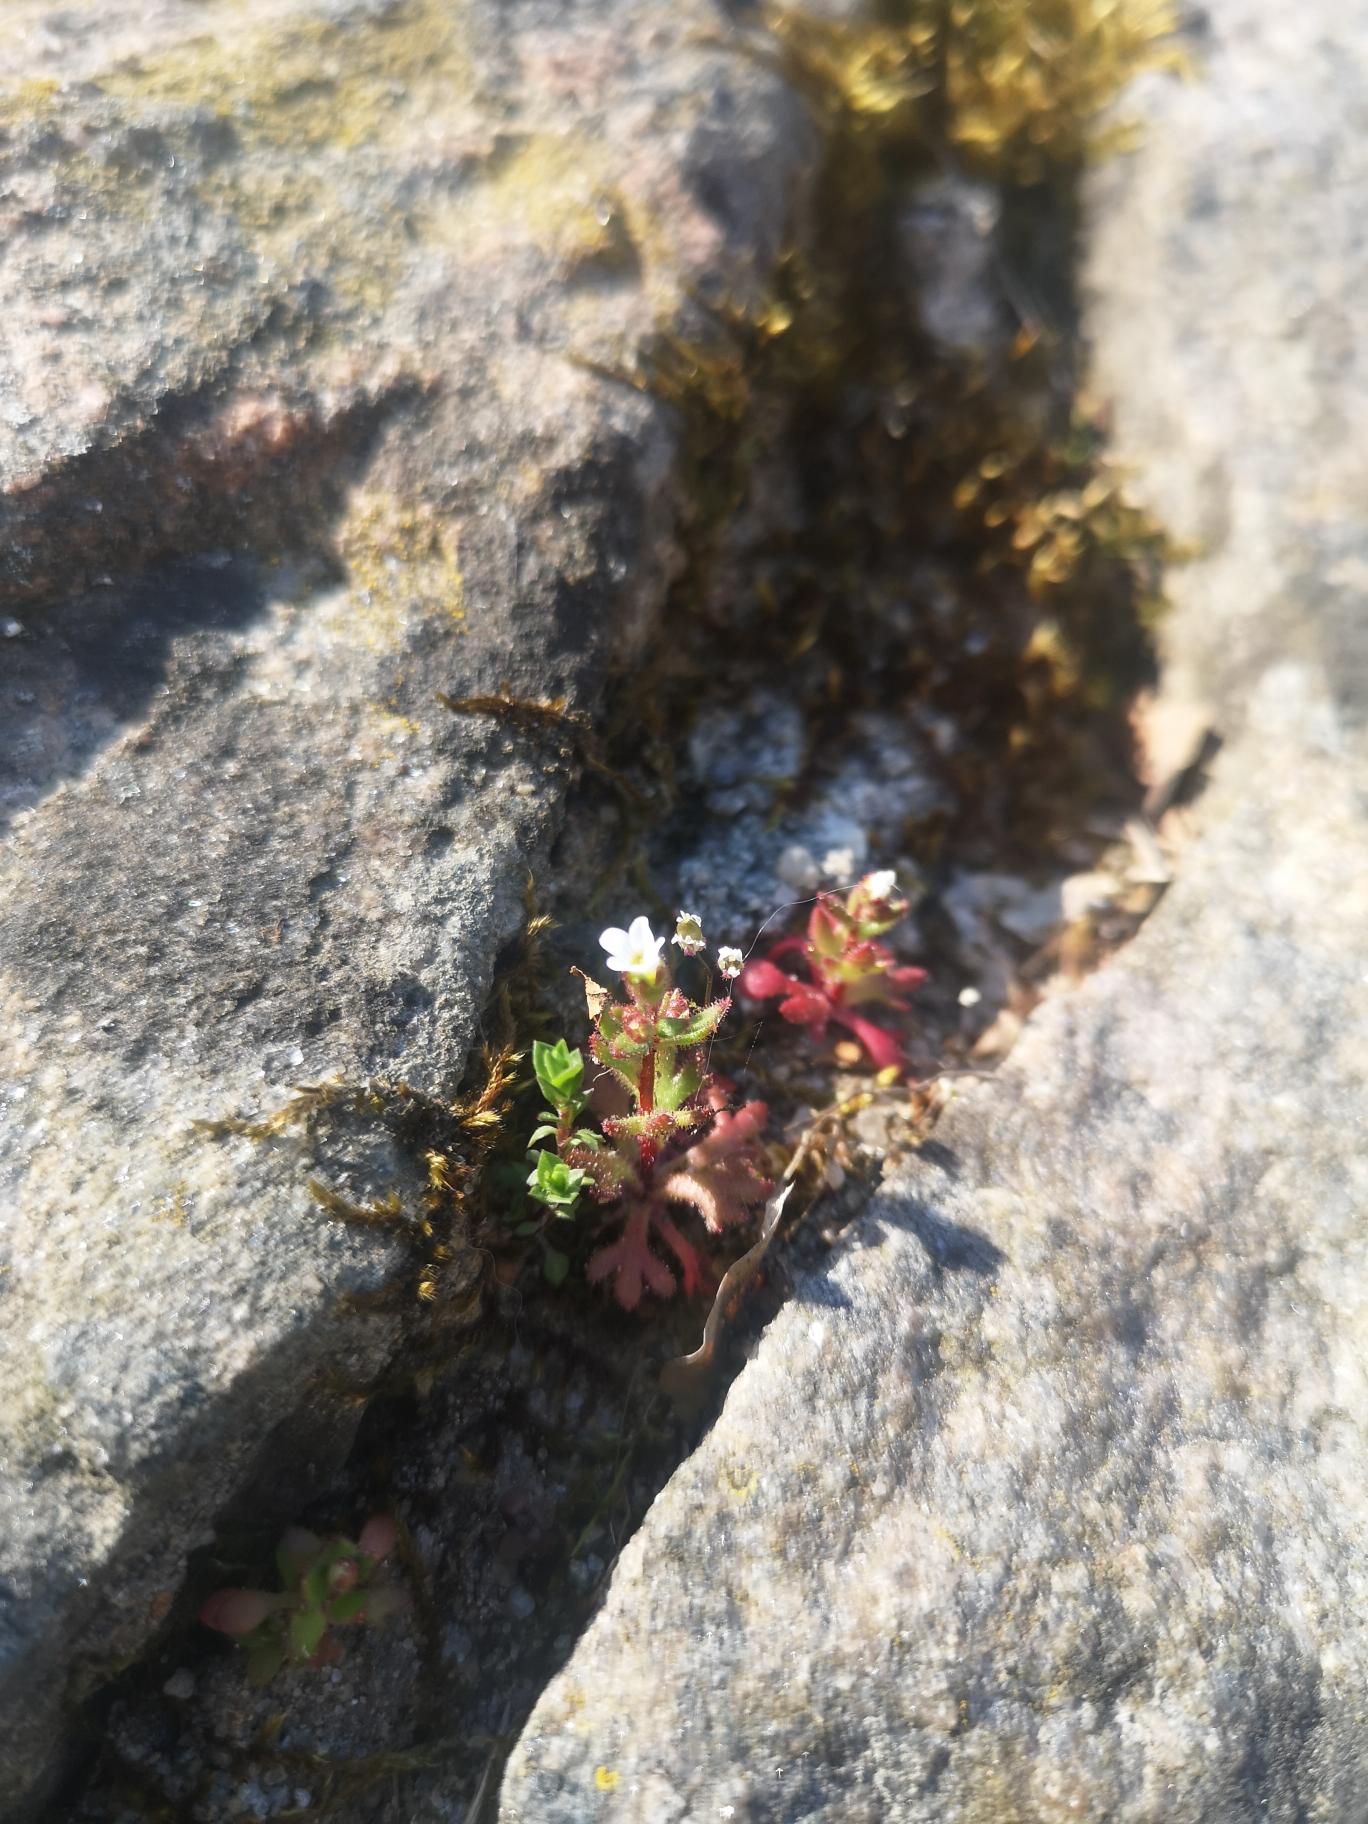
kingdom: Plantae
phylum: Tracheophyta
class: Magnoliopsida
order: Saxifragales
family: Saxifragaceae
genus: Saxifraga
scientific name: Saxifraga tridactylites
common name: Trekløft-stenbræk
